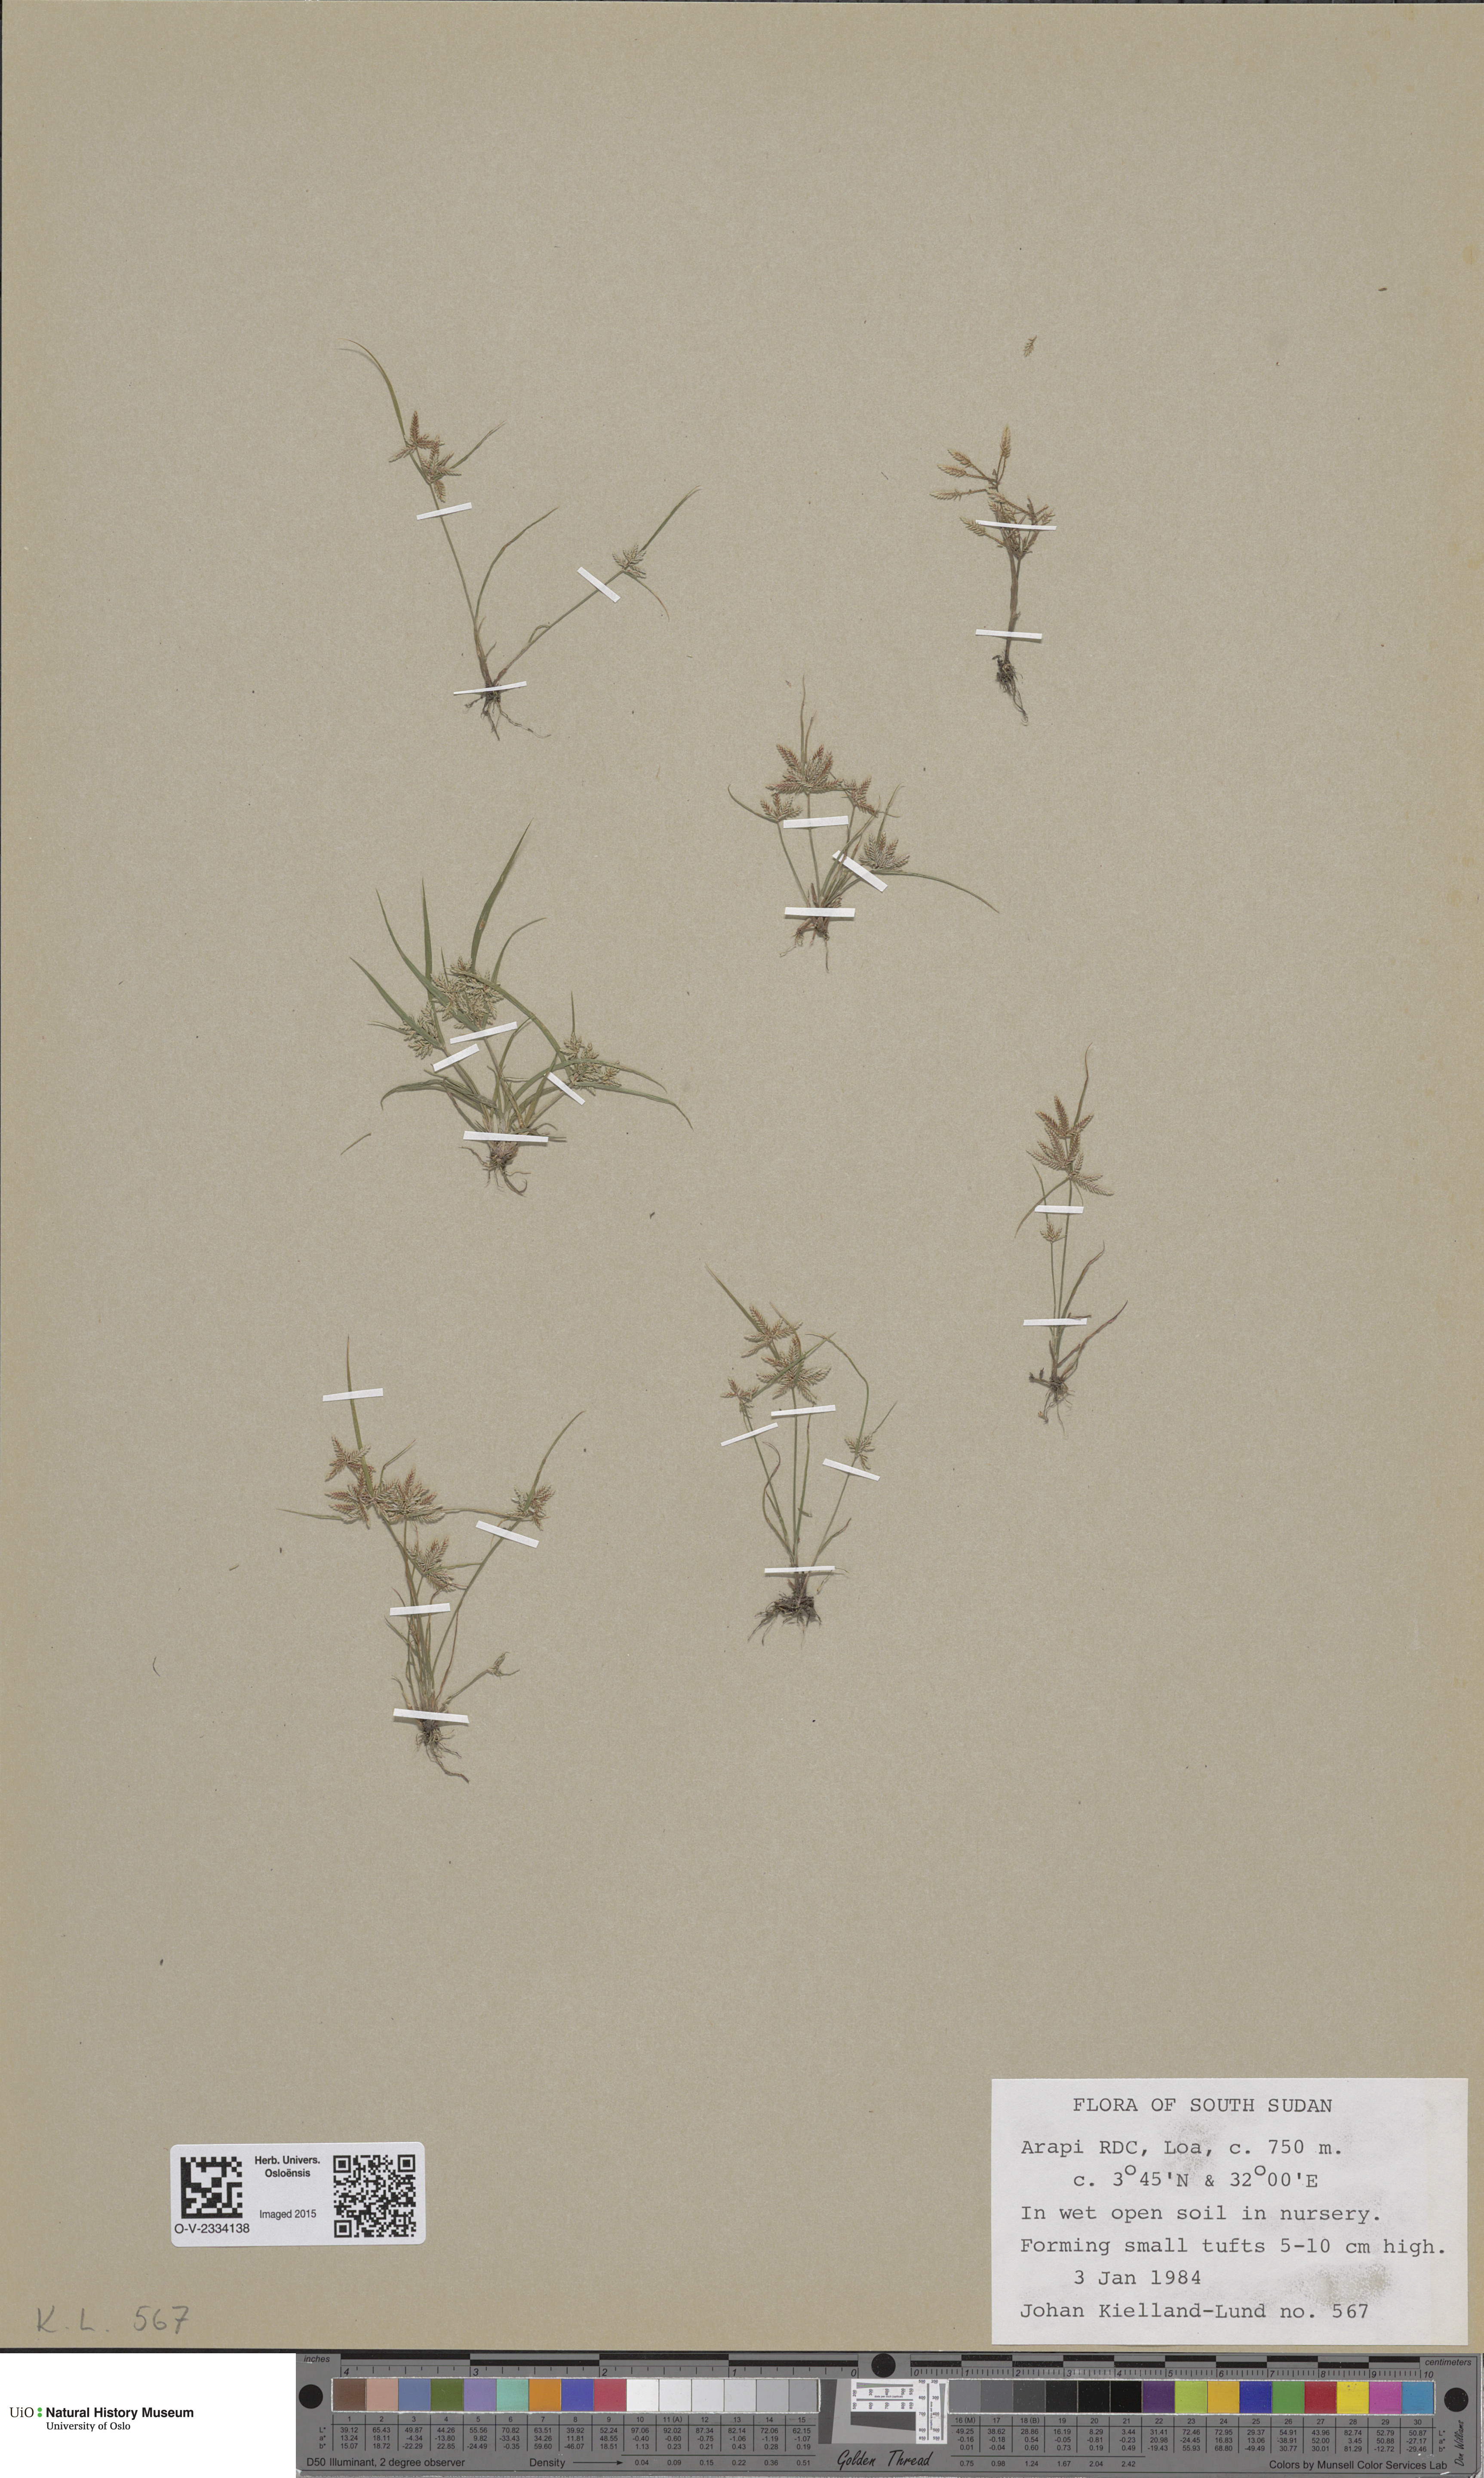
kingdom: Plantae
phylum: Tracheophyta
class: Magnoliopsida
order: Brassicales
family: Brassicaceae
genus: Draba
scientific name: Draba oxycarpa
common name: Sharp-fruited whitlow-grass
